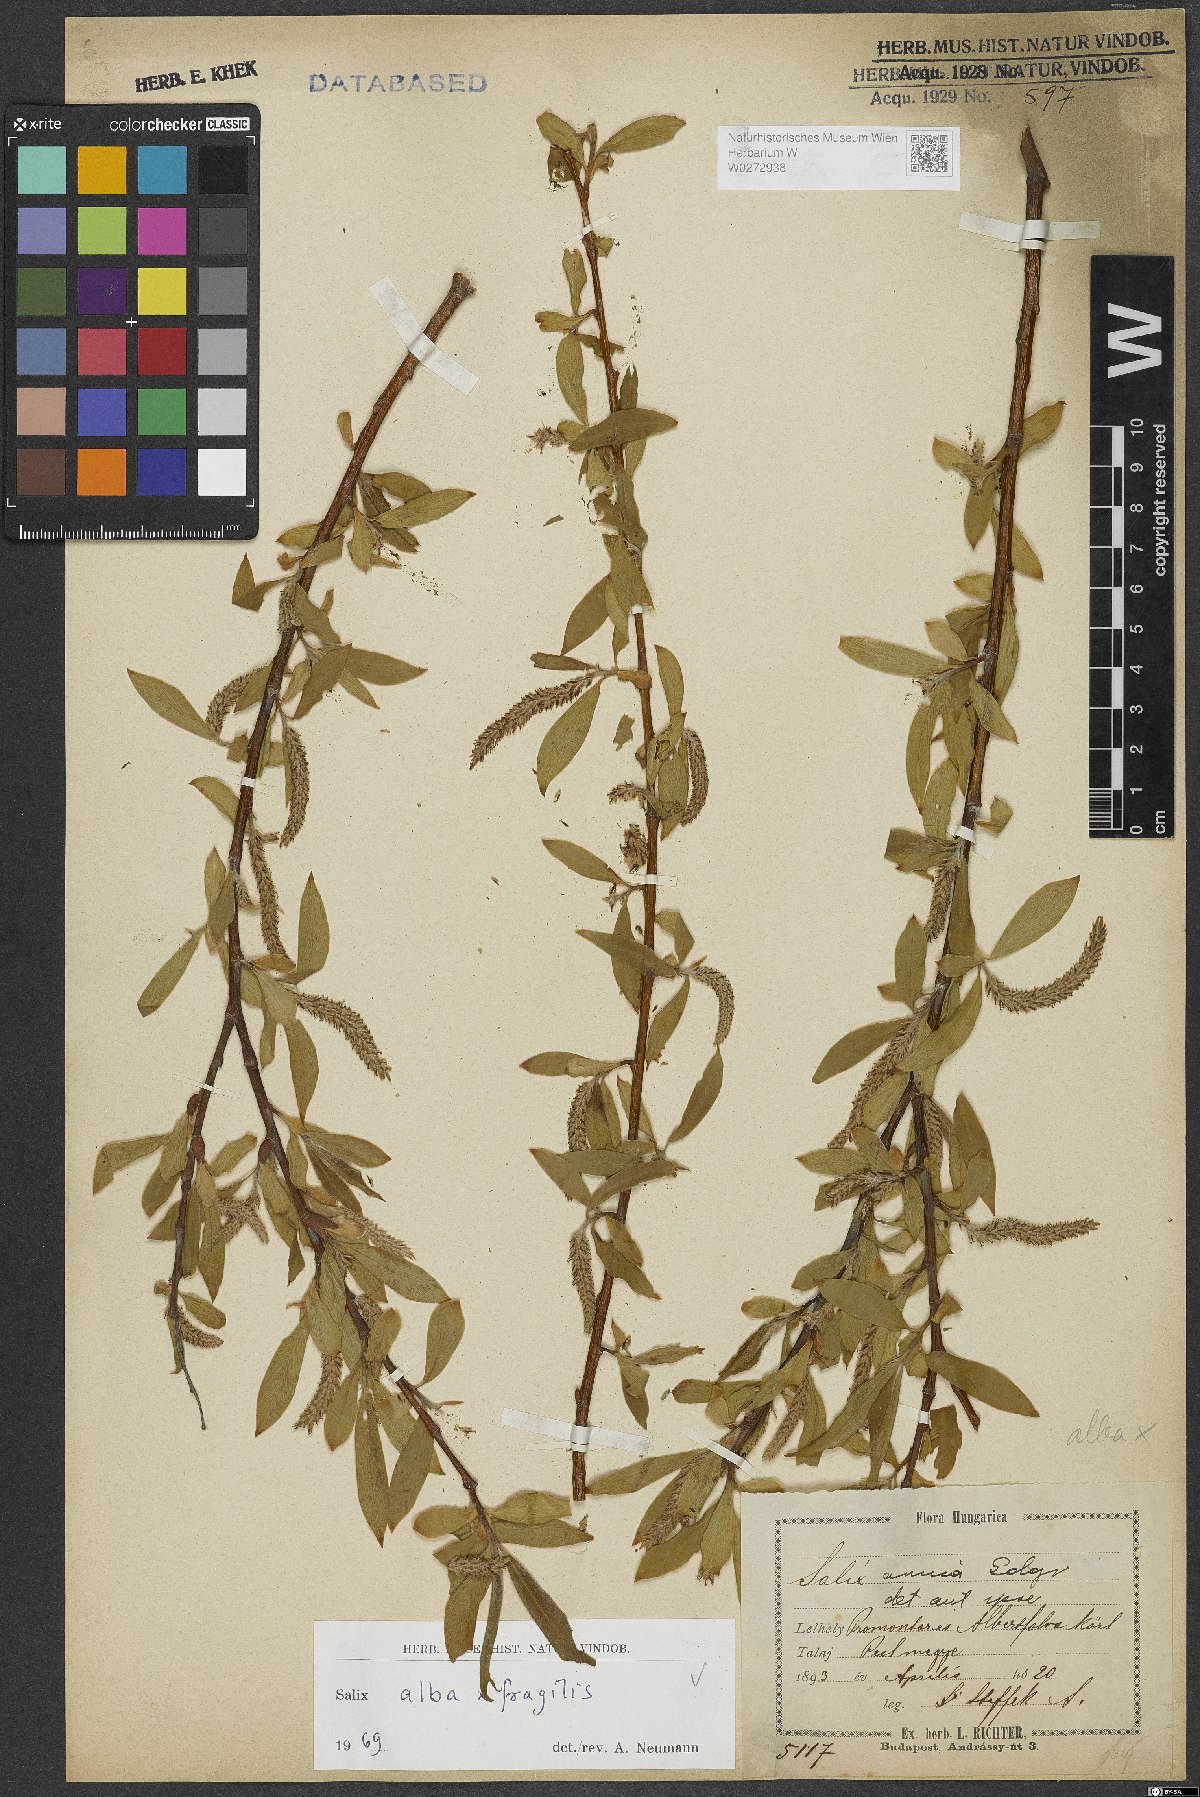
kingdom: Plantae
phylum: Tracheophyta
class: Magnoliopsida
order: Malpighiales
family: Salicaceae
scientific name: Salicaceae
